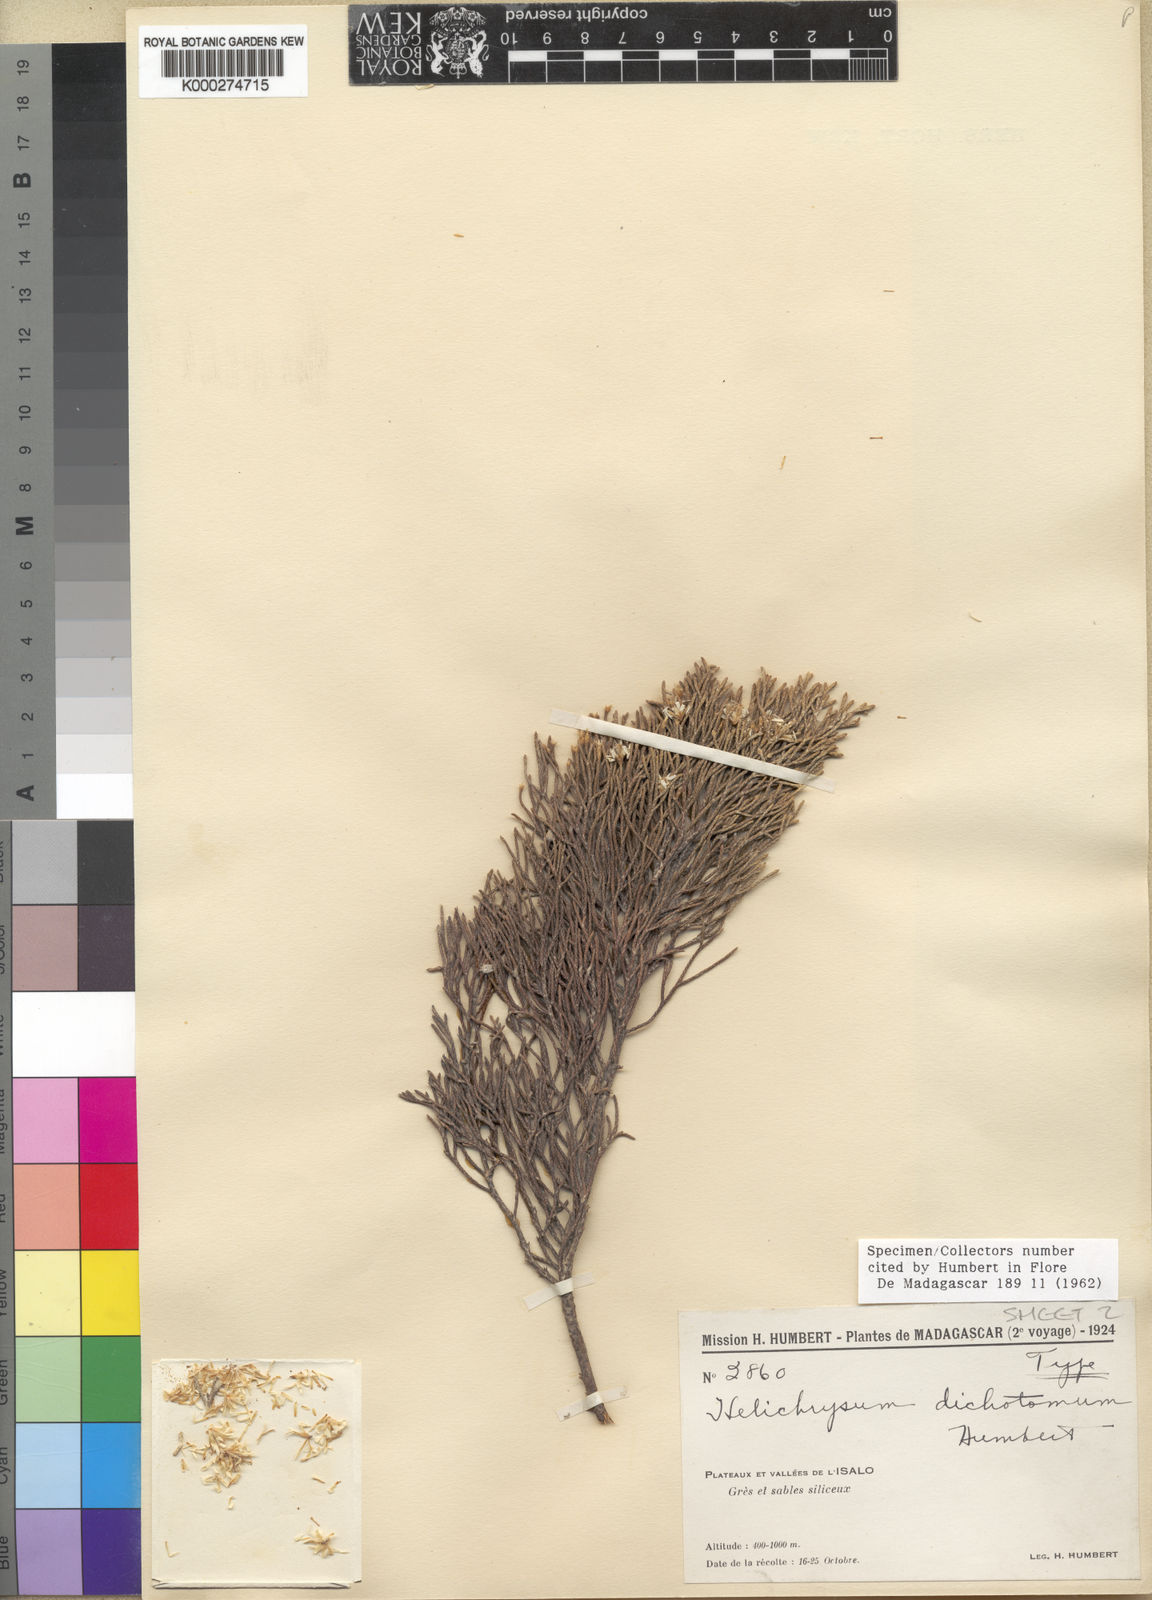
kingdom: Plantae
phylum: Tracheophyta
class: Magnoliopsida
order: Asterales
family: Asteraceae
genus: Helichrysum
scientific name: Helichrysum dichotomum
